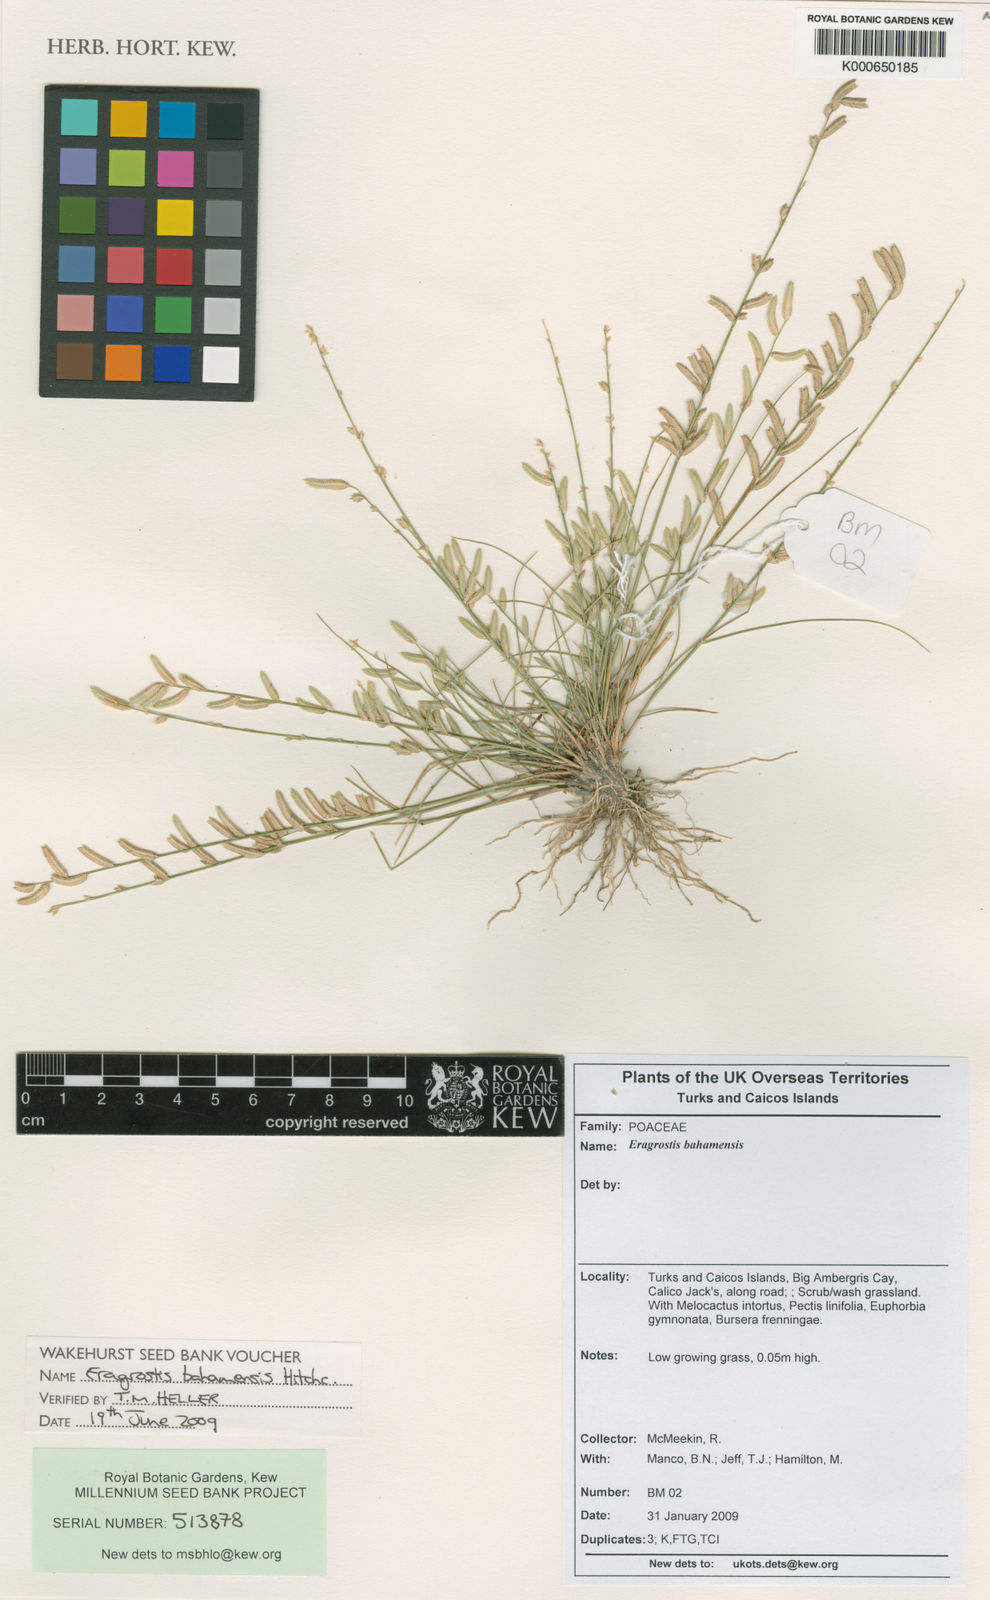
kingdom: Plantae
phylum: Tracheophyta
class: Liliopsida
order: Poales
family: Poaceae
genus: Eragrostis
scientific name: Eragrostis bahamensis
